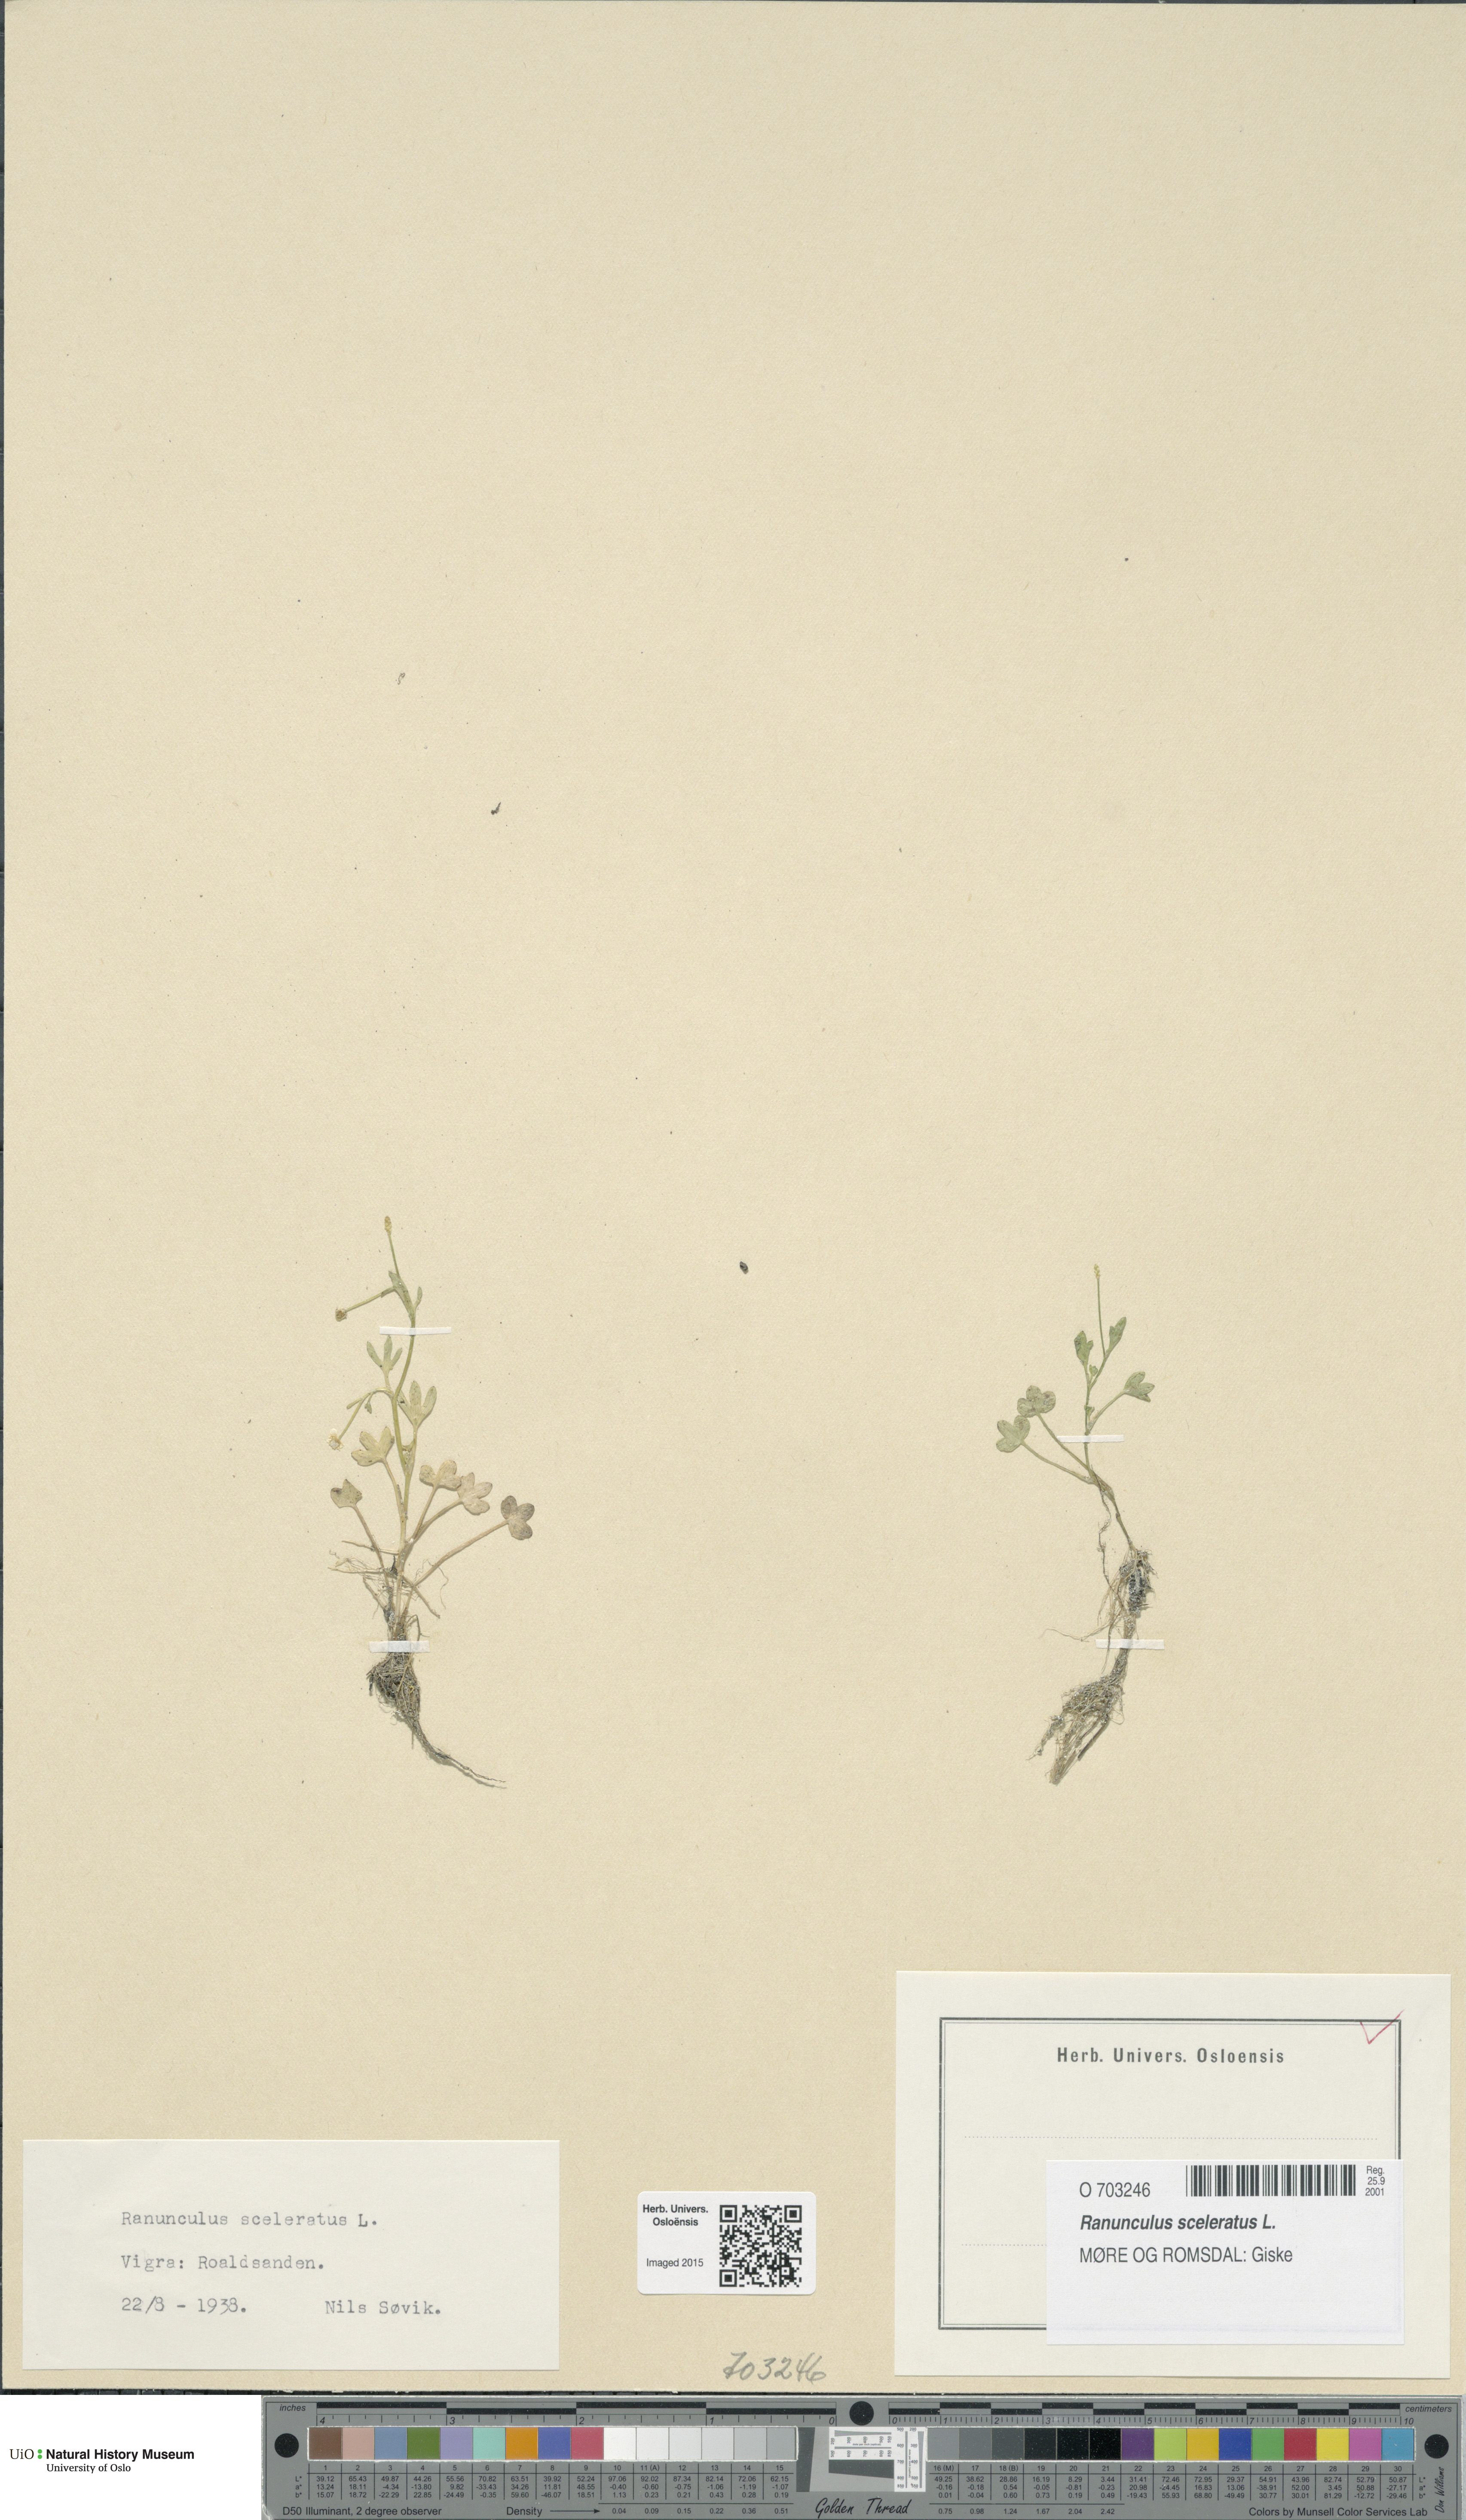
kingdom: Plantae
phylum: Tracheophyta
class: Magnoliopsida
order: Ranunculales
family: Ranunculaceae
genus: Ranunculus
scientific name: Ranunculus sceleratus
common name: Celery-leaved buttercup
